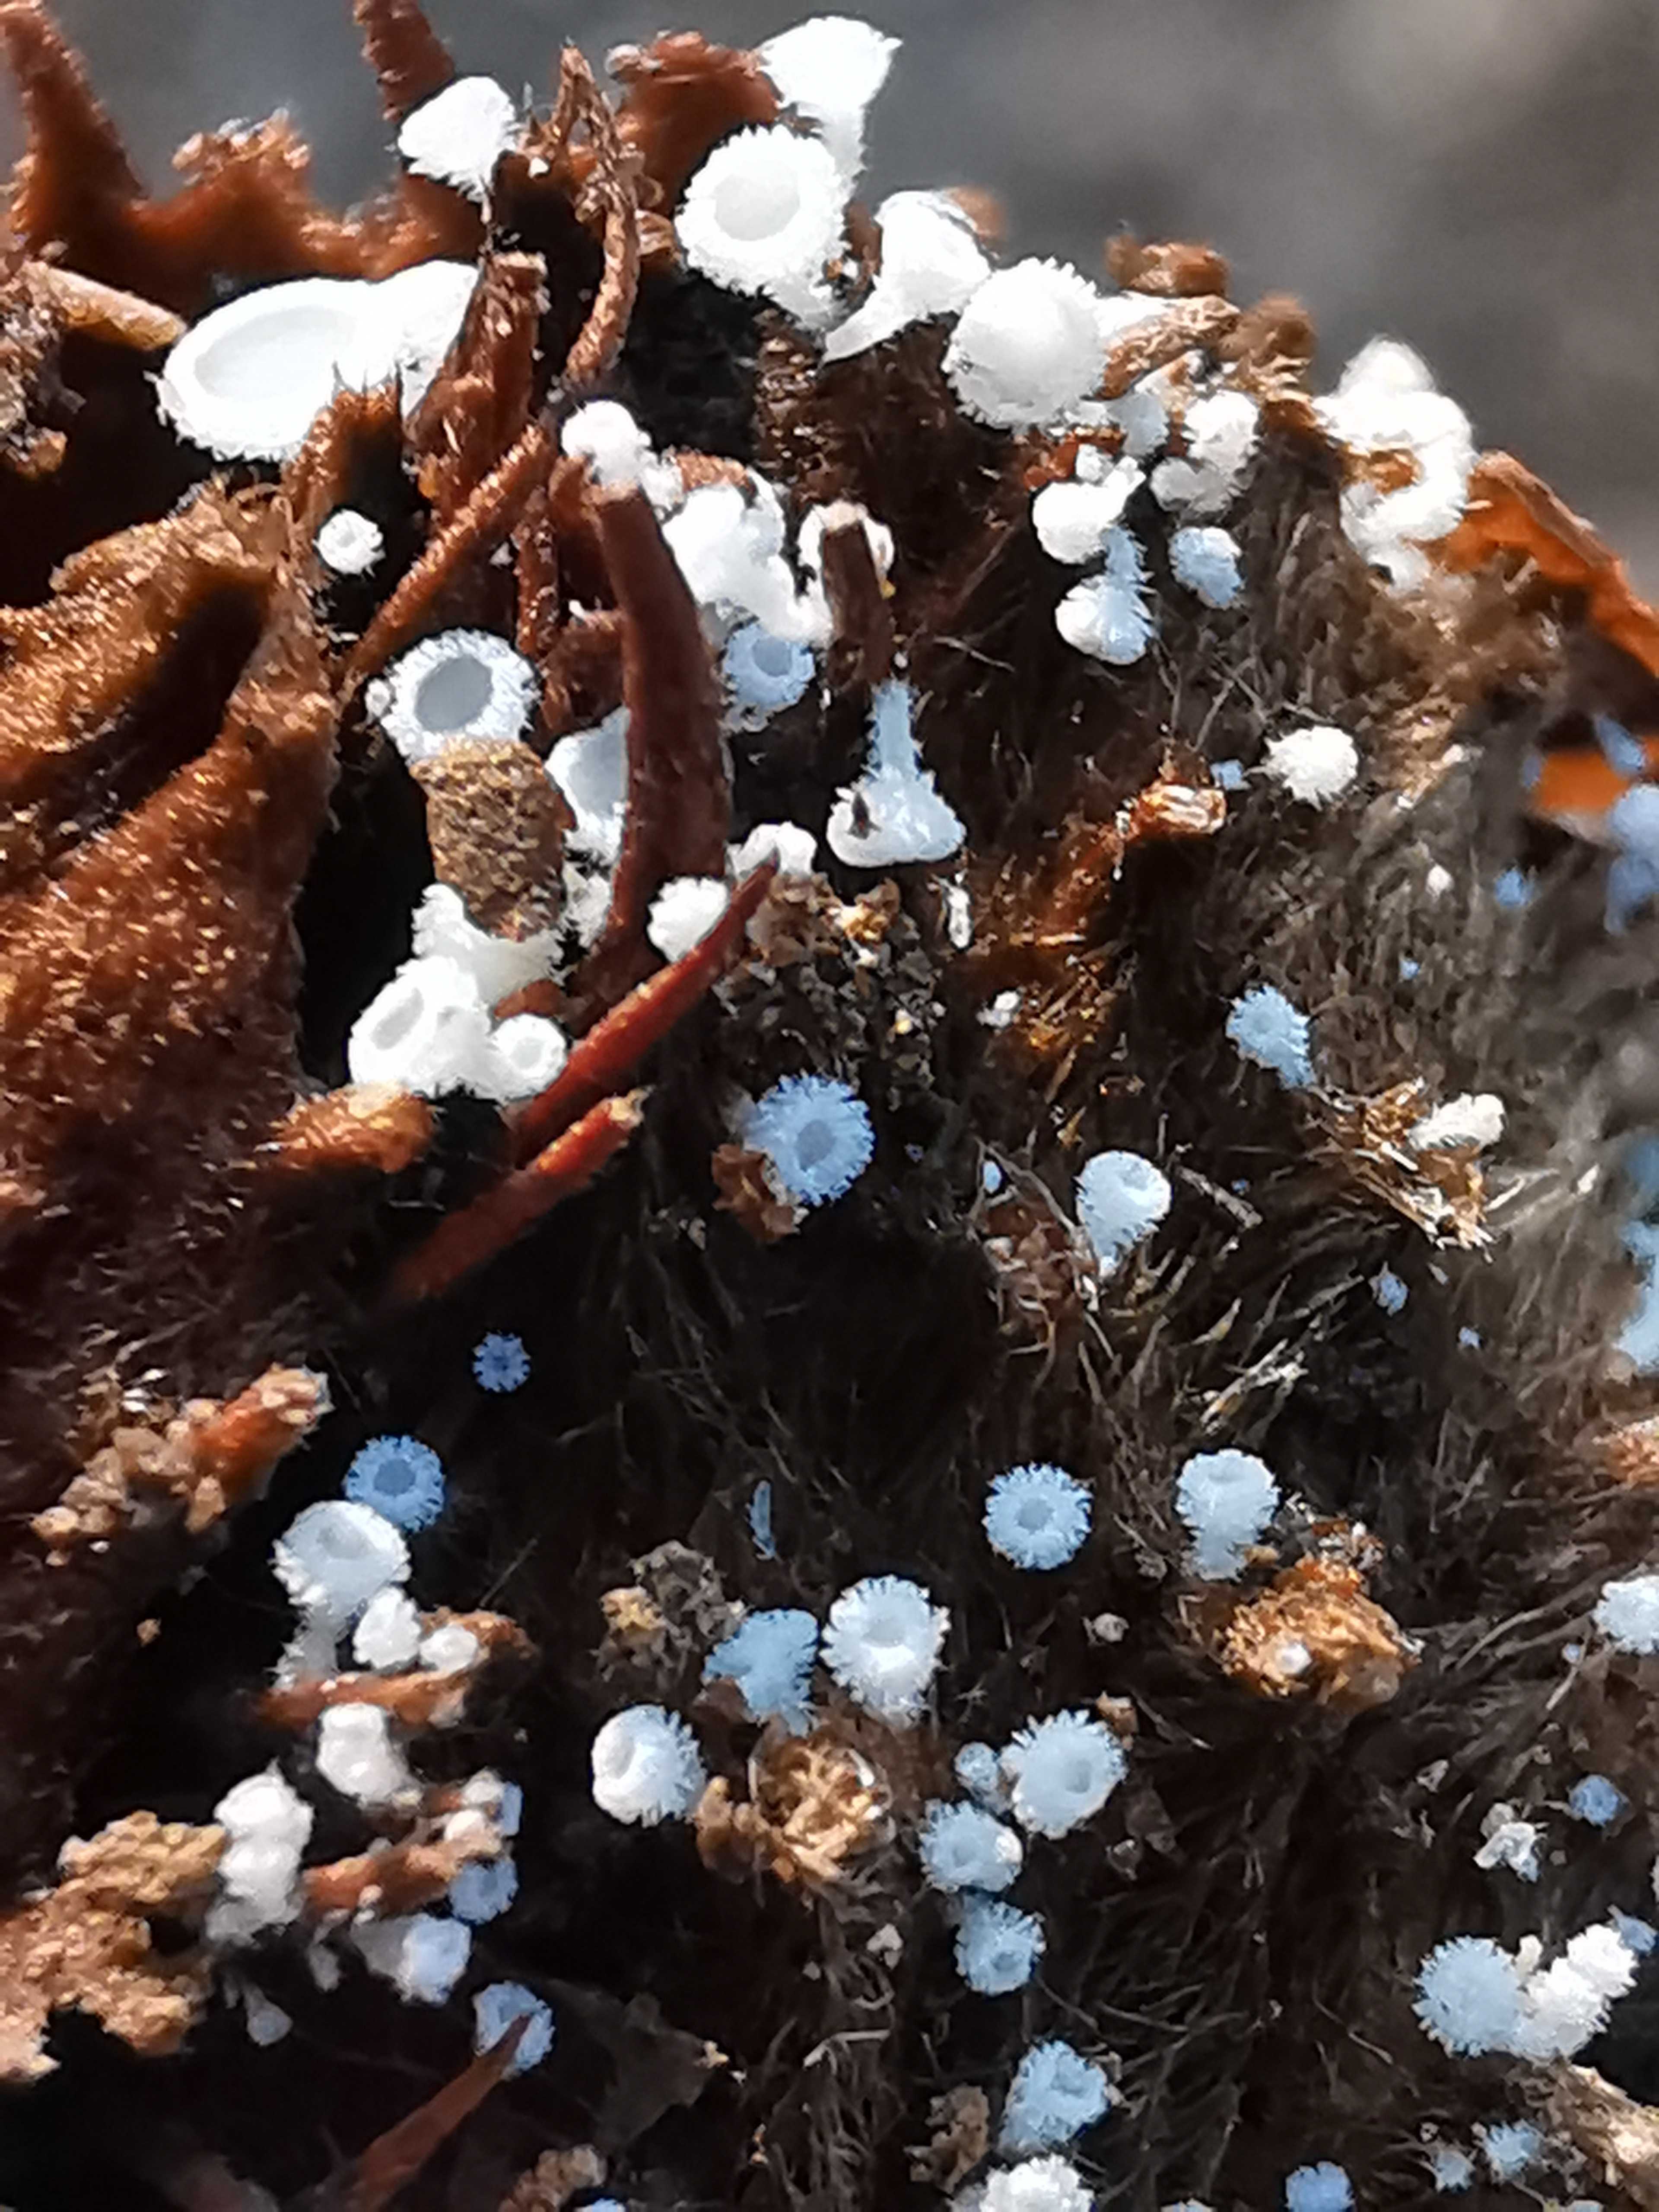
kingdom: Fungi
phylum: Ascomycota
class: Leotiomycetes
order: Helotiales
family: Lachnaceae
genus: Lachnum
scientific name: Lachnum virgineum
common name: jomfru-frynseskive
